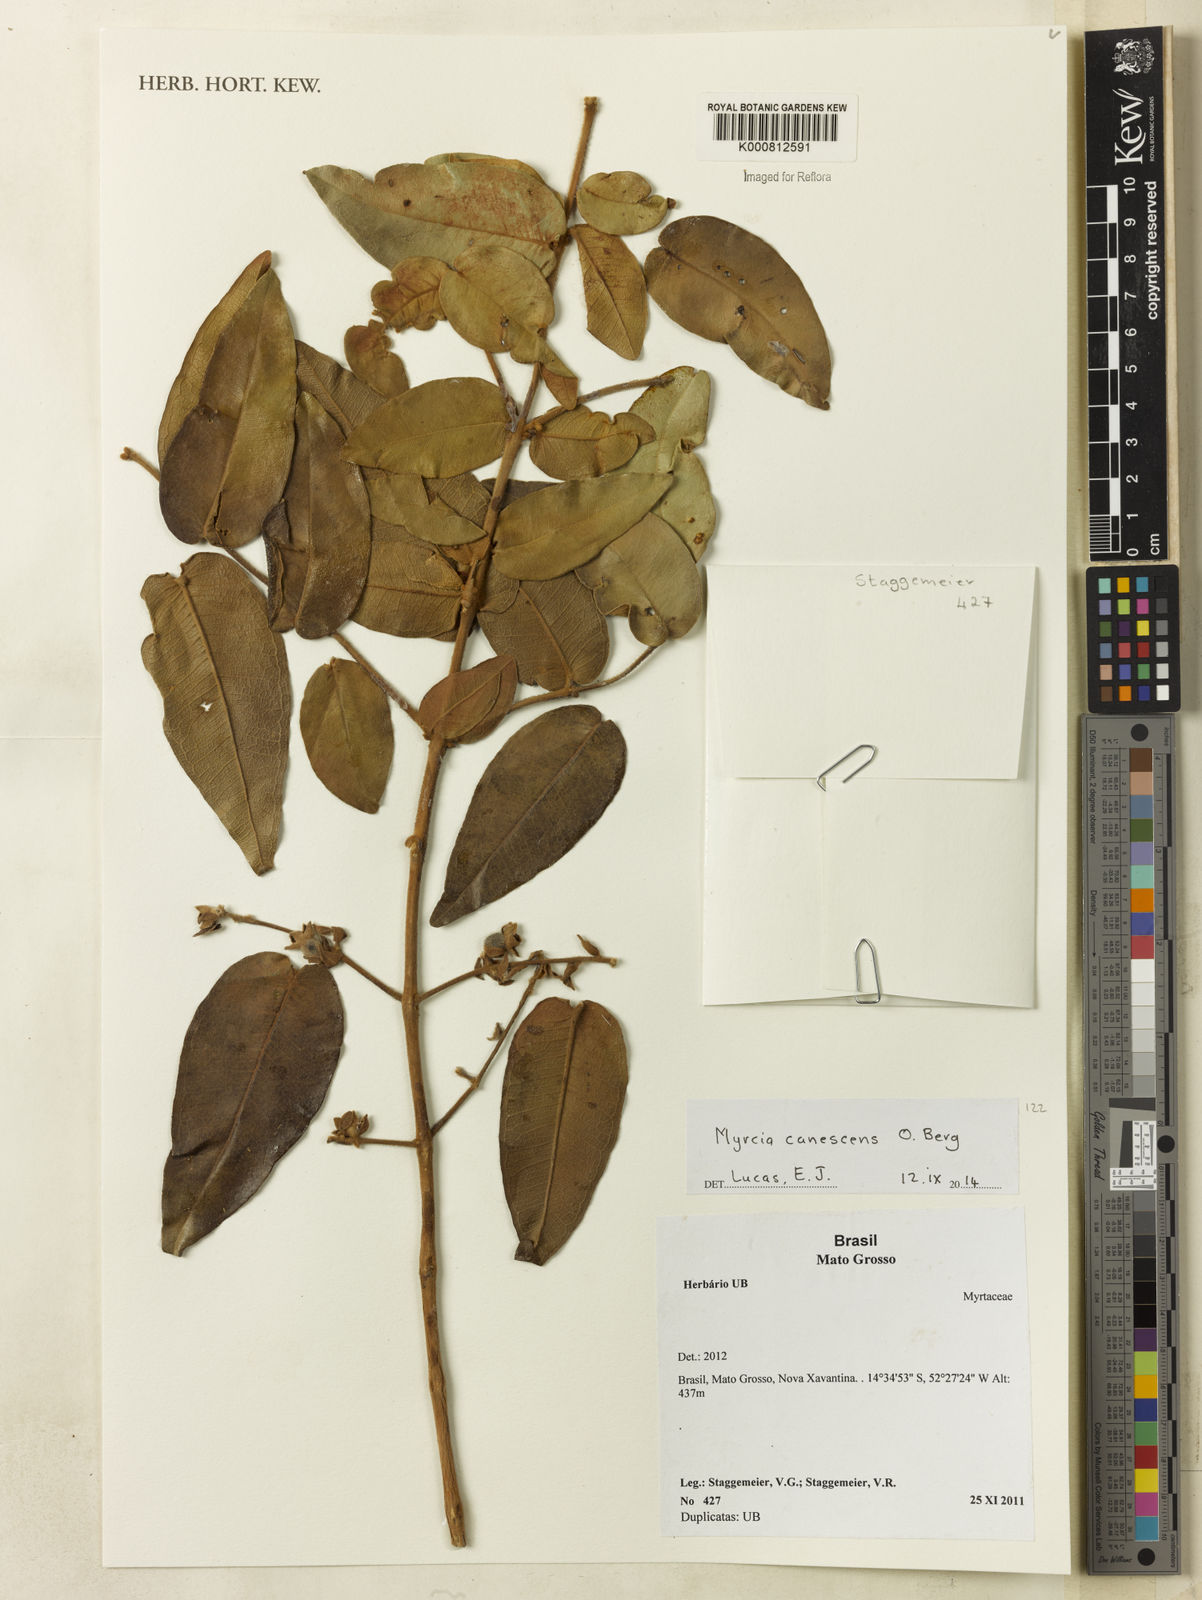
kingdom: Plantae
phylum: Tracheophyta
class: Magnoliopsida
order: Myrtales
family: Myrtaceae
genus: Myrcia
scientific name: Myrcia canescens
